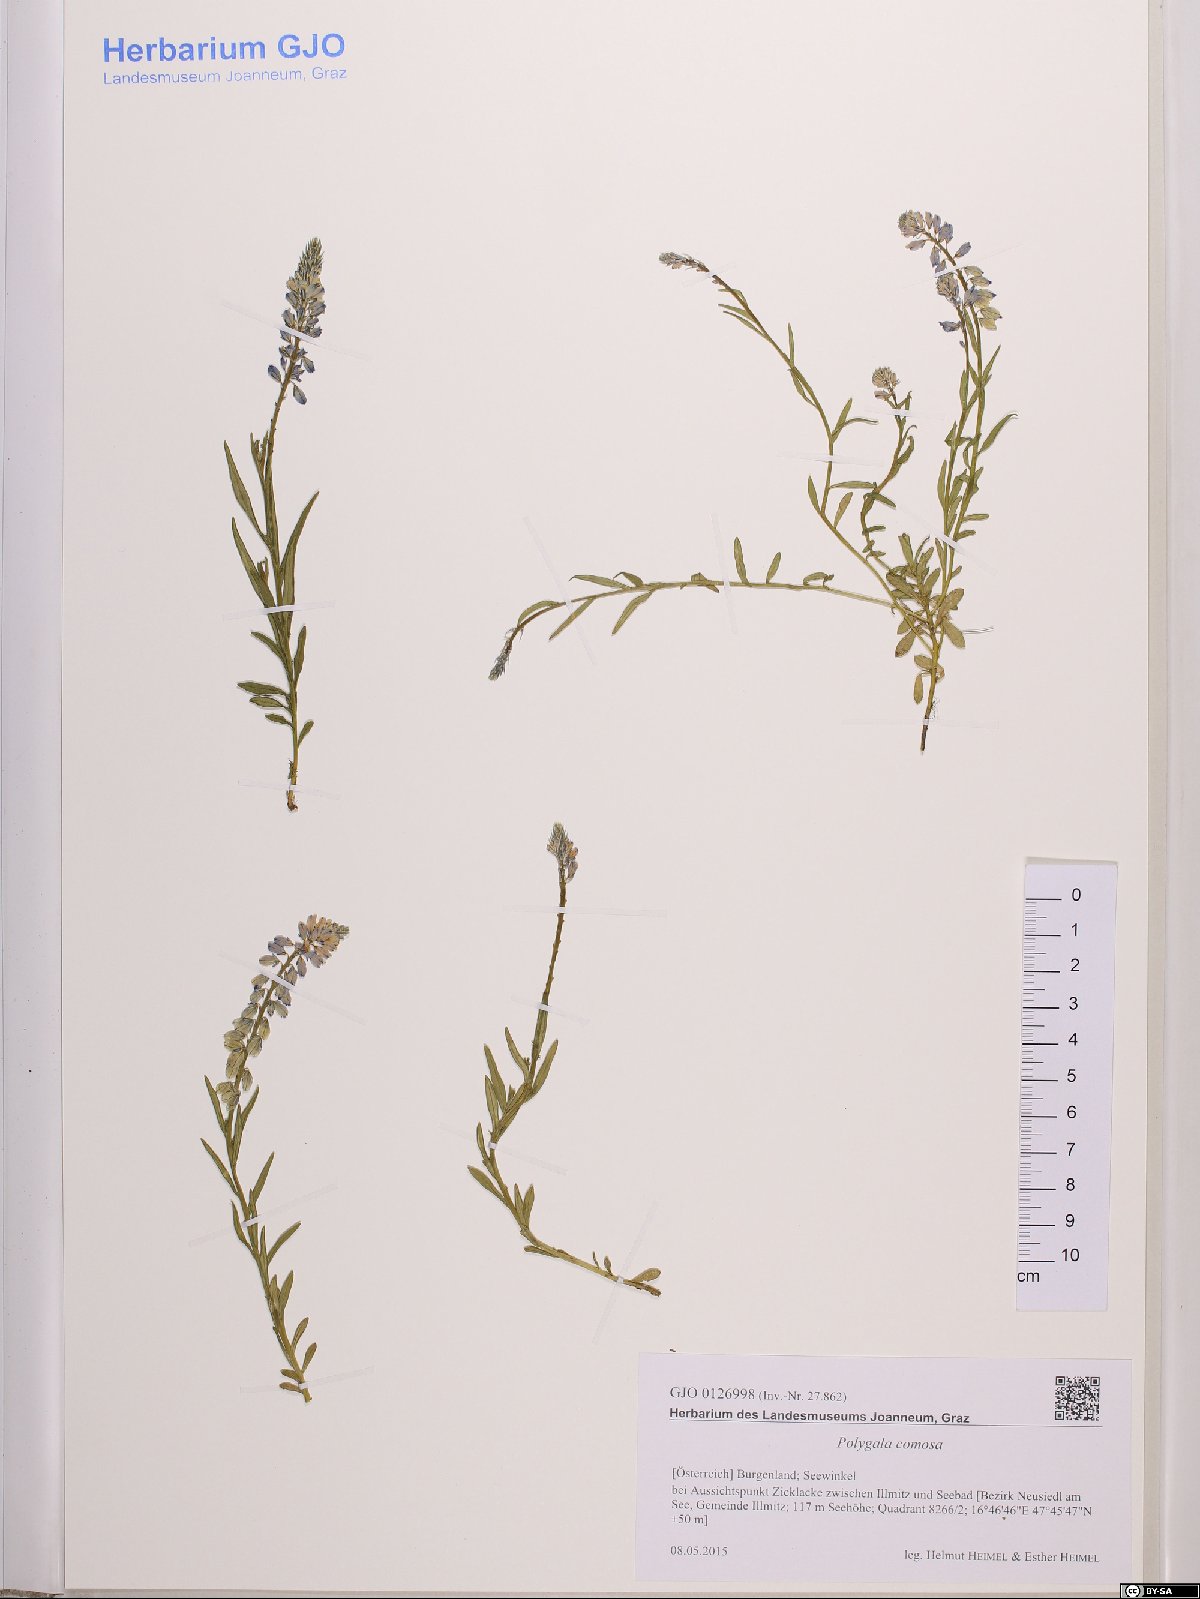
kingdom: Plantae
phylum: Tracheophyta
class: Magnoliopsida
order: Fabales
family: Polygalaceae
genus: Polygala
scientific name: Polygala comosa
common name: Tufted milkwort
